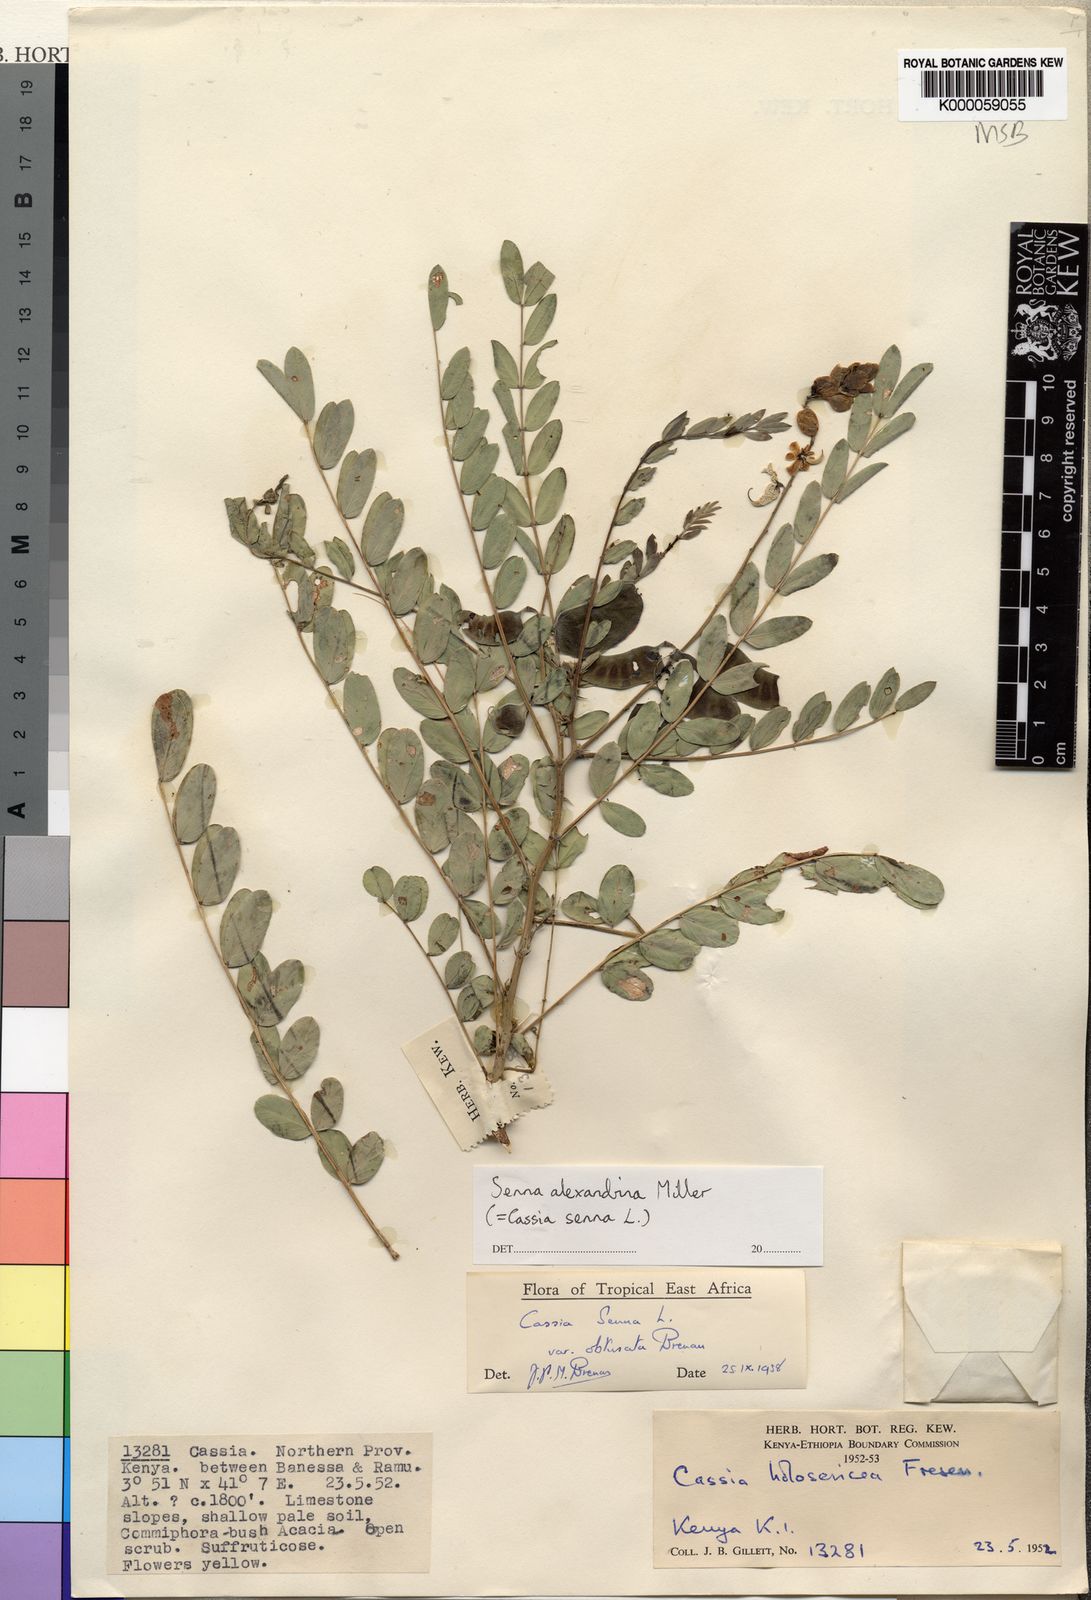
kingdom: Plantae
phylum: Tracheophyta
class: Magnoliopsida
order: Fabales
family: Fabaceae
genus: Senna
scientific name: Senna alexandrina
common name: True senna
